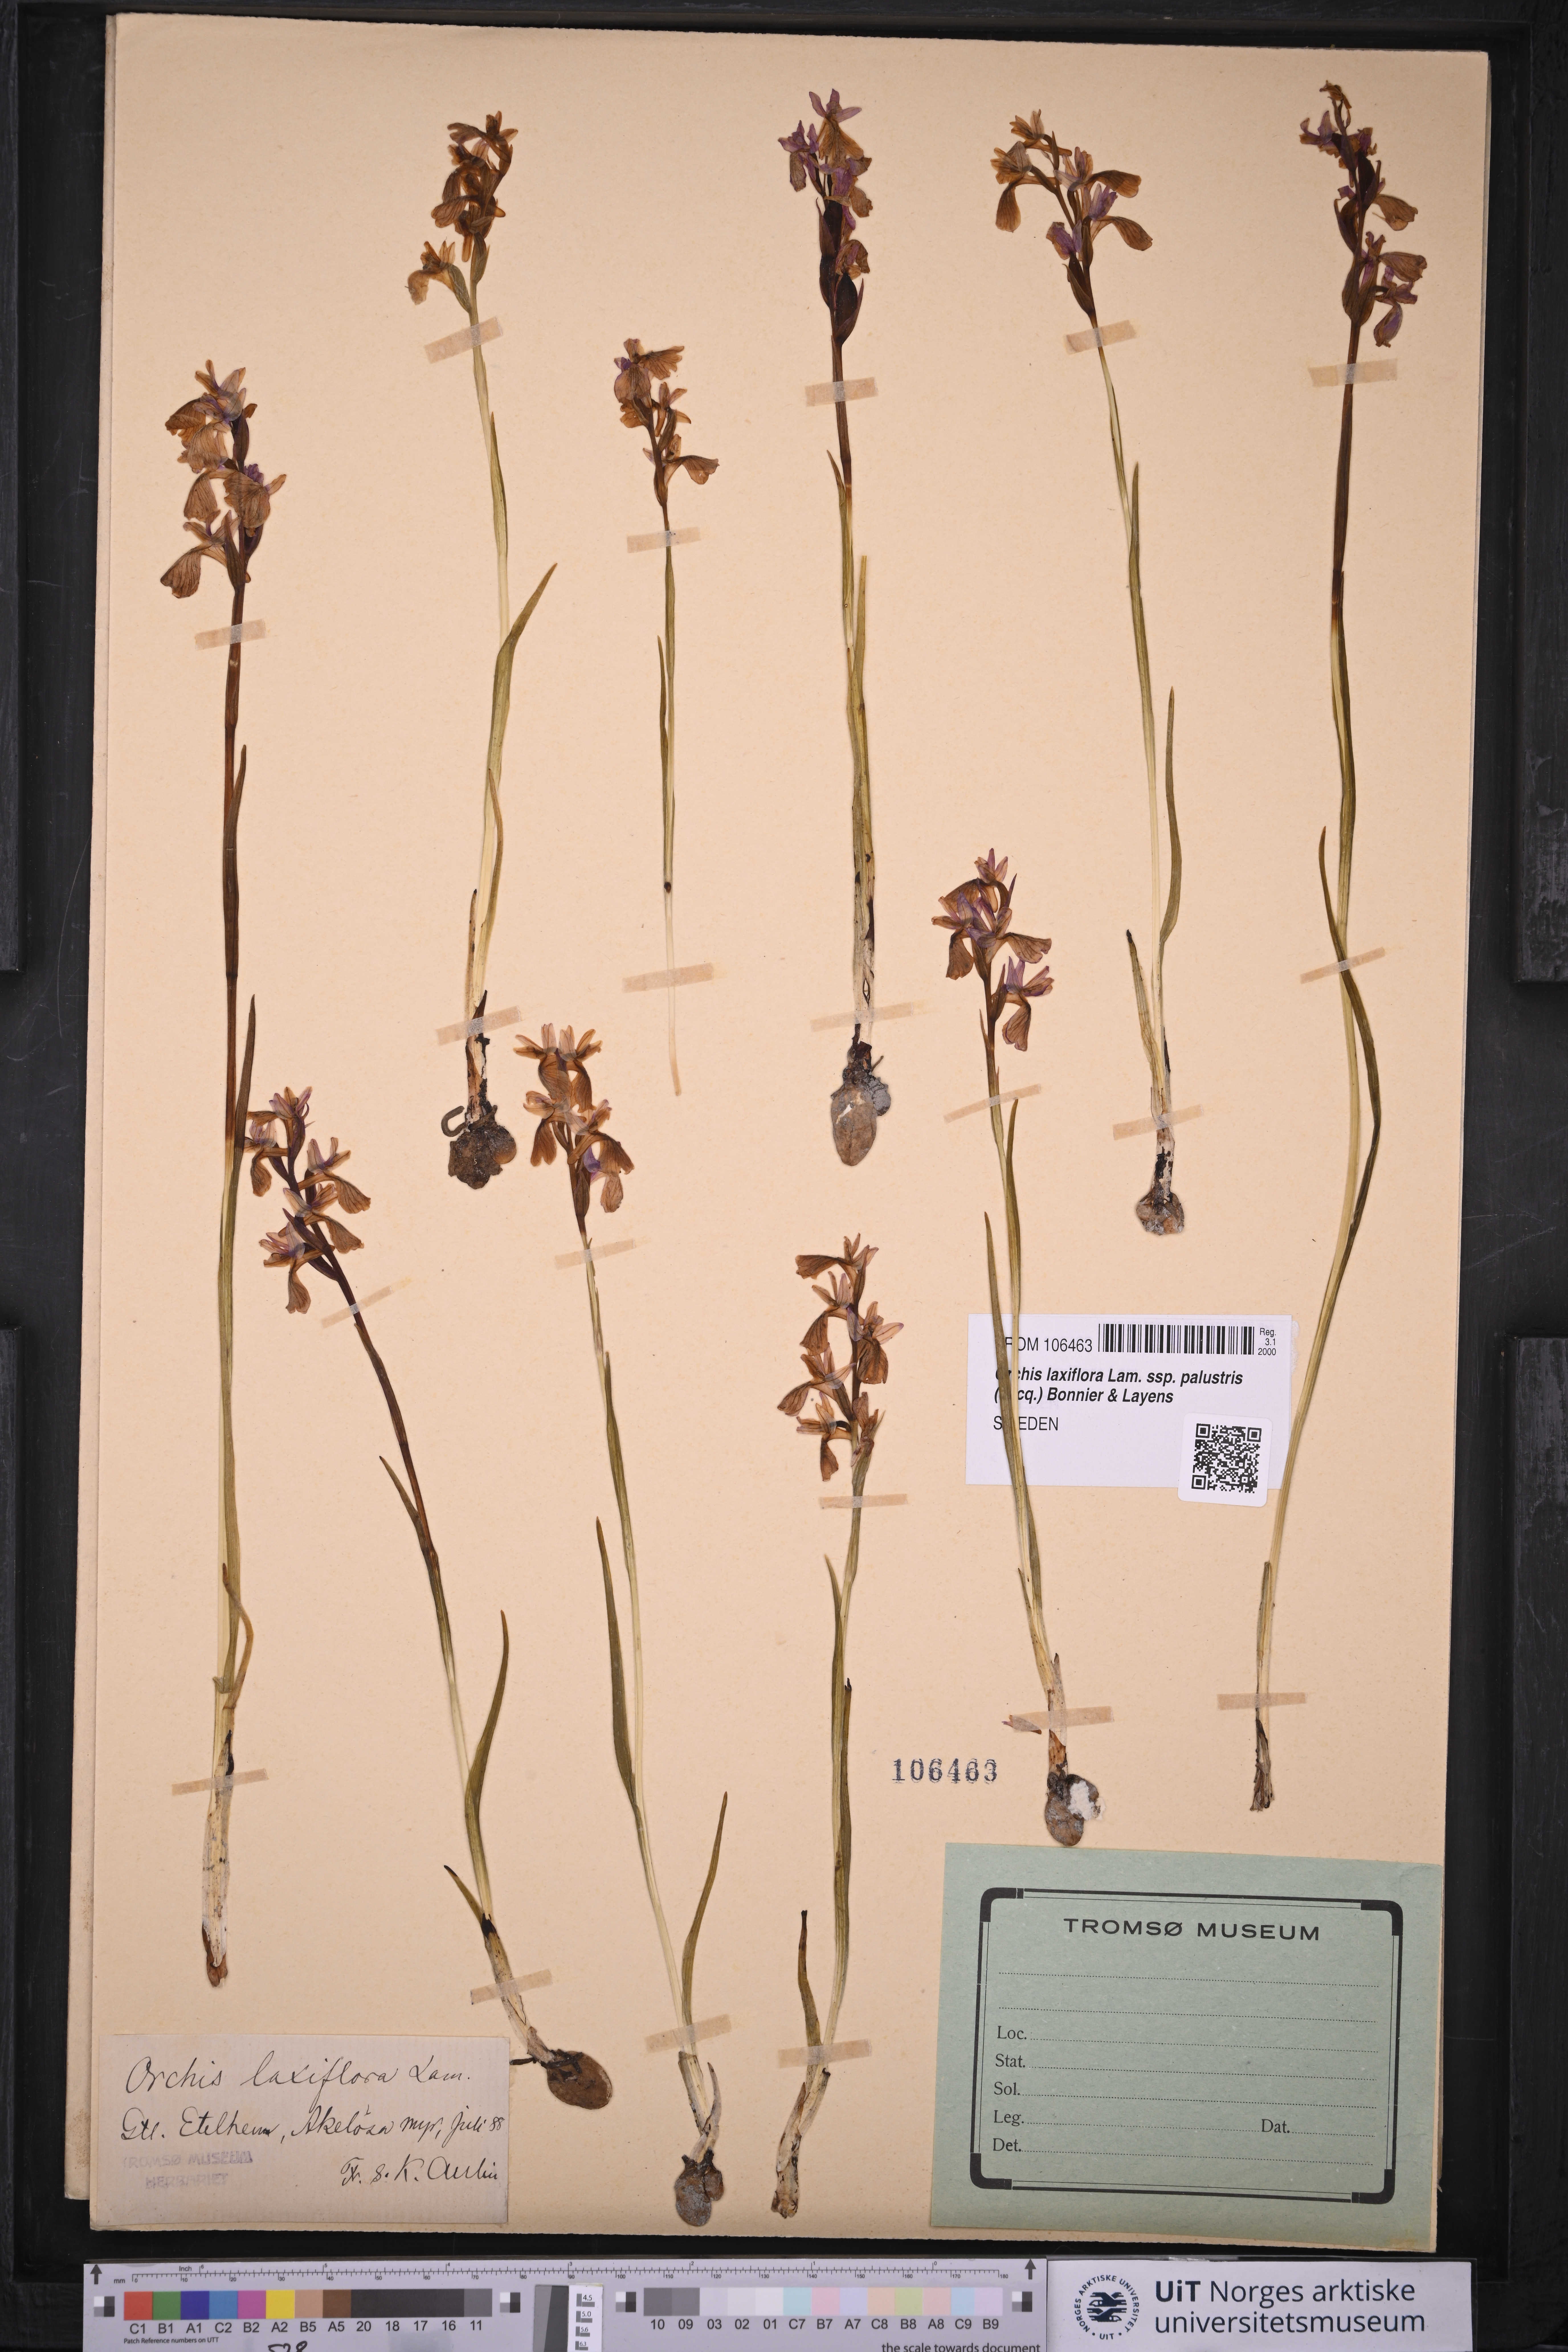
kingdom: Plantae
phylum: Tracheophyta
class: Liliopsida
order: Asparagales
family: Orchidaceae
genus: Anacamptis
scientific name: Anacamptis palustris
